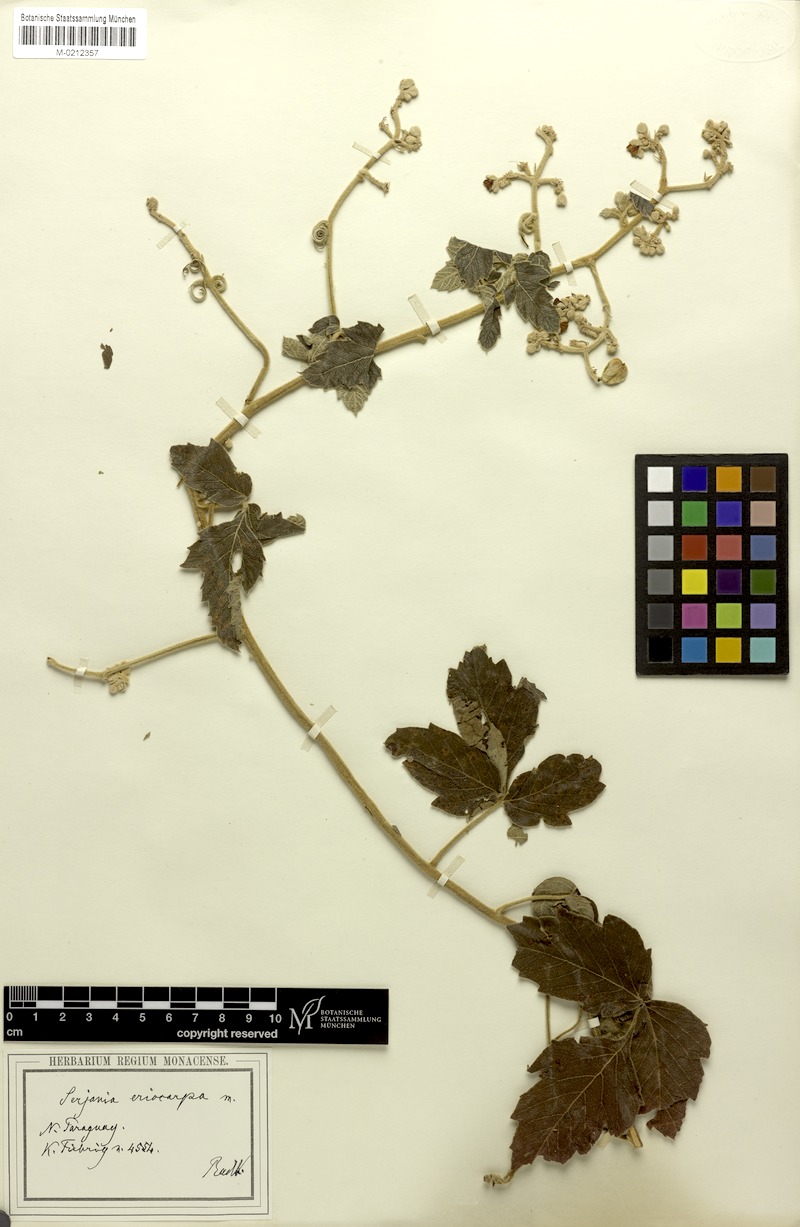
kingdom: Plantae
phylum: Tracheophyta
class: Magnoliopsida
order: Sapindales
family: Sapindaceae
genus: Serjania
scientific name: Serjania eriocarpa
